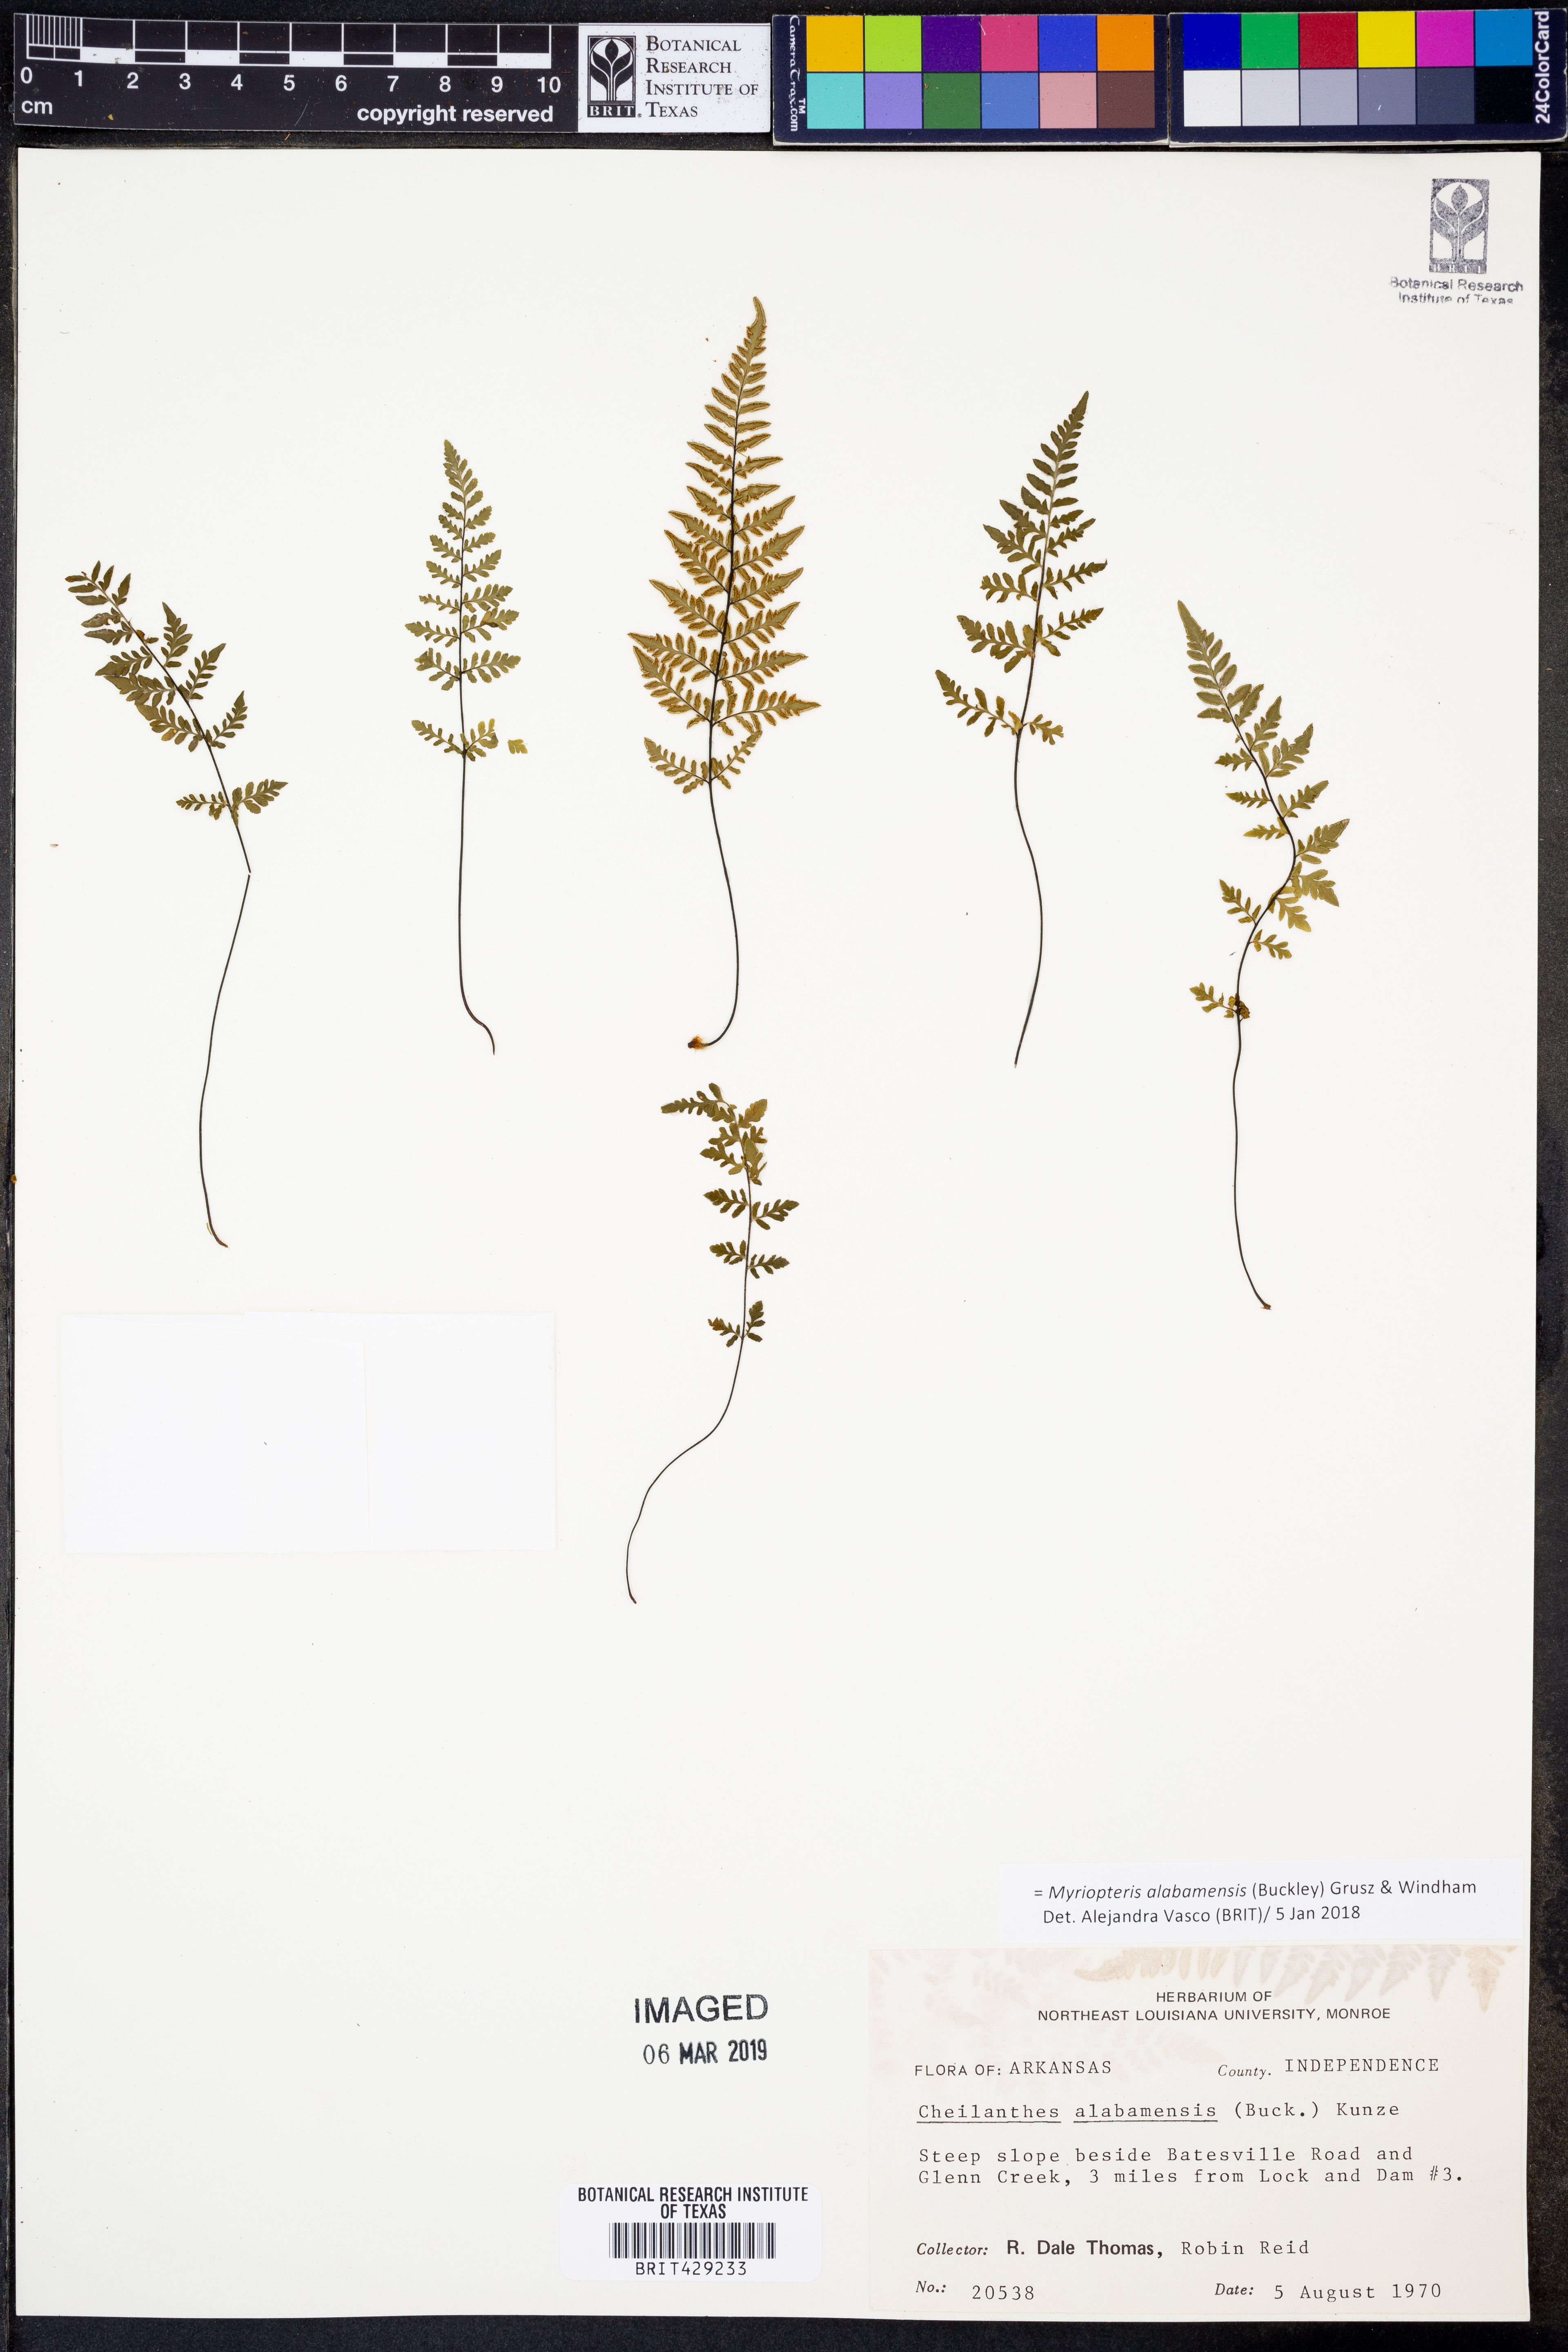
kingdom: Plantae
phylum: Tracheophyta
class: Polypodiopsida
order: Polypodiales
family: Pteridaceae
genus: Myriopteris
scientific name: Myriopteris alabamensis
